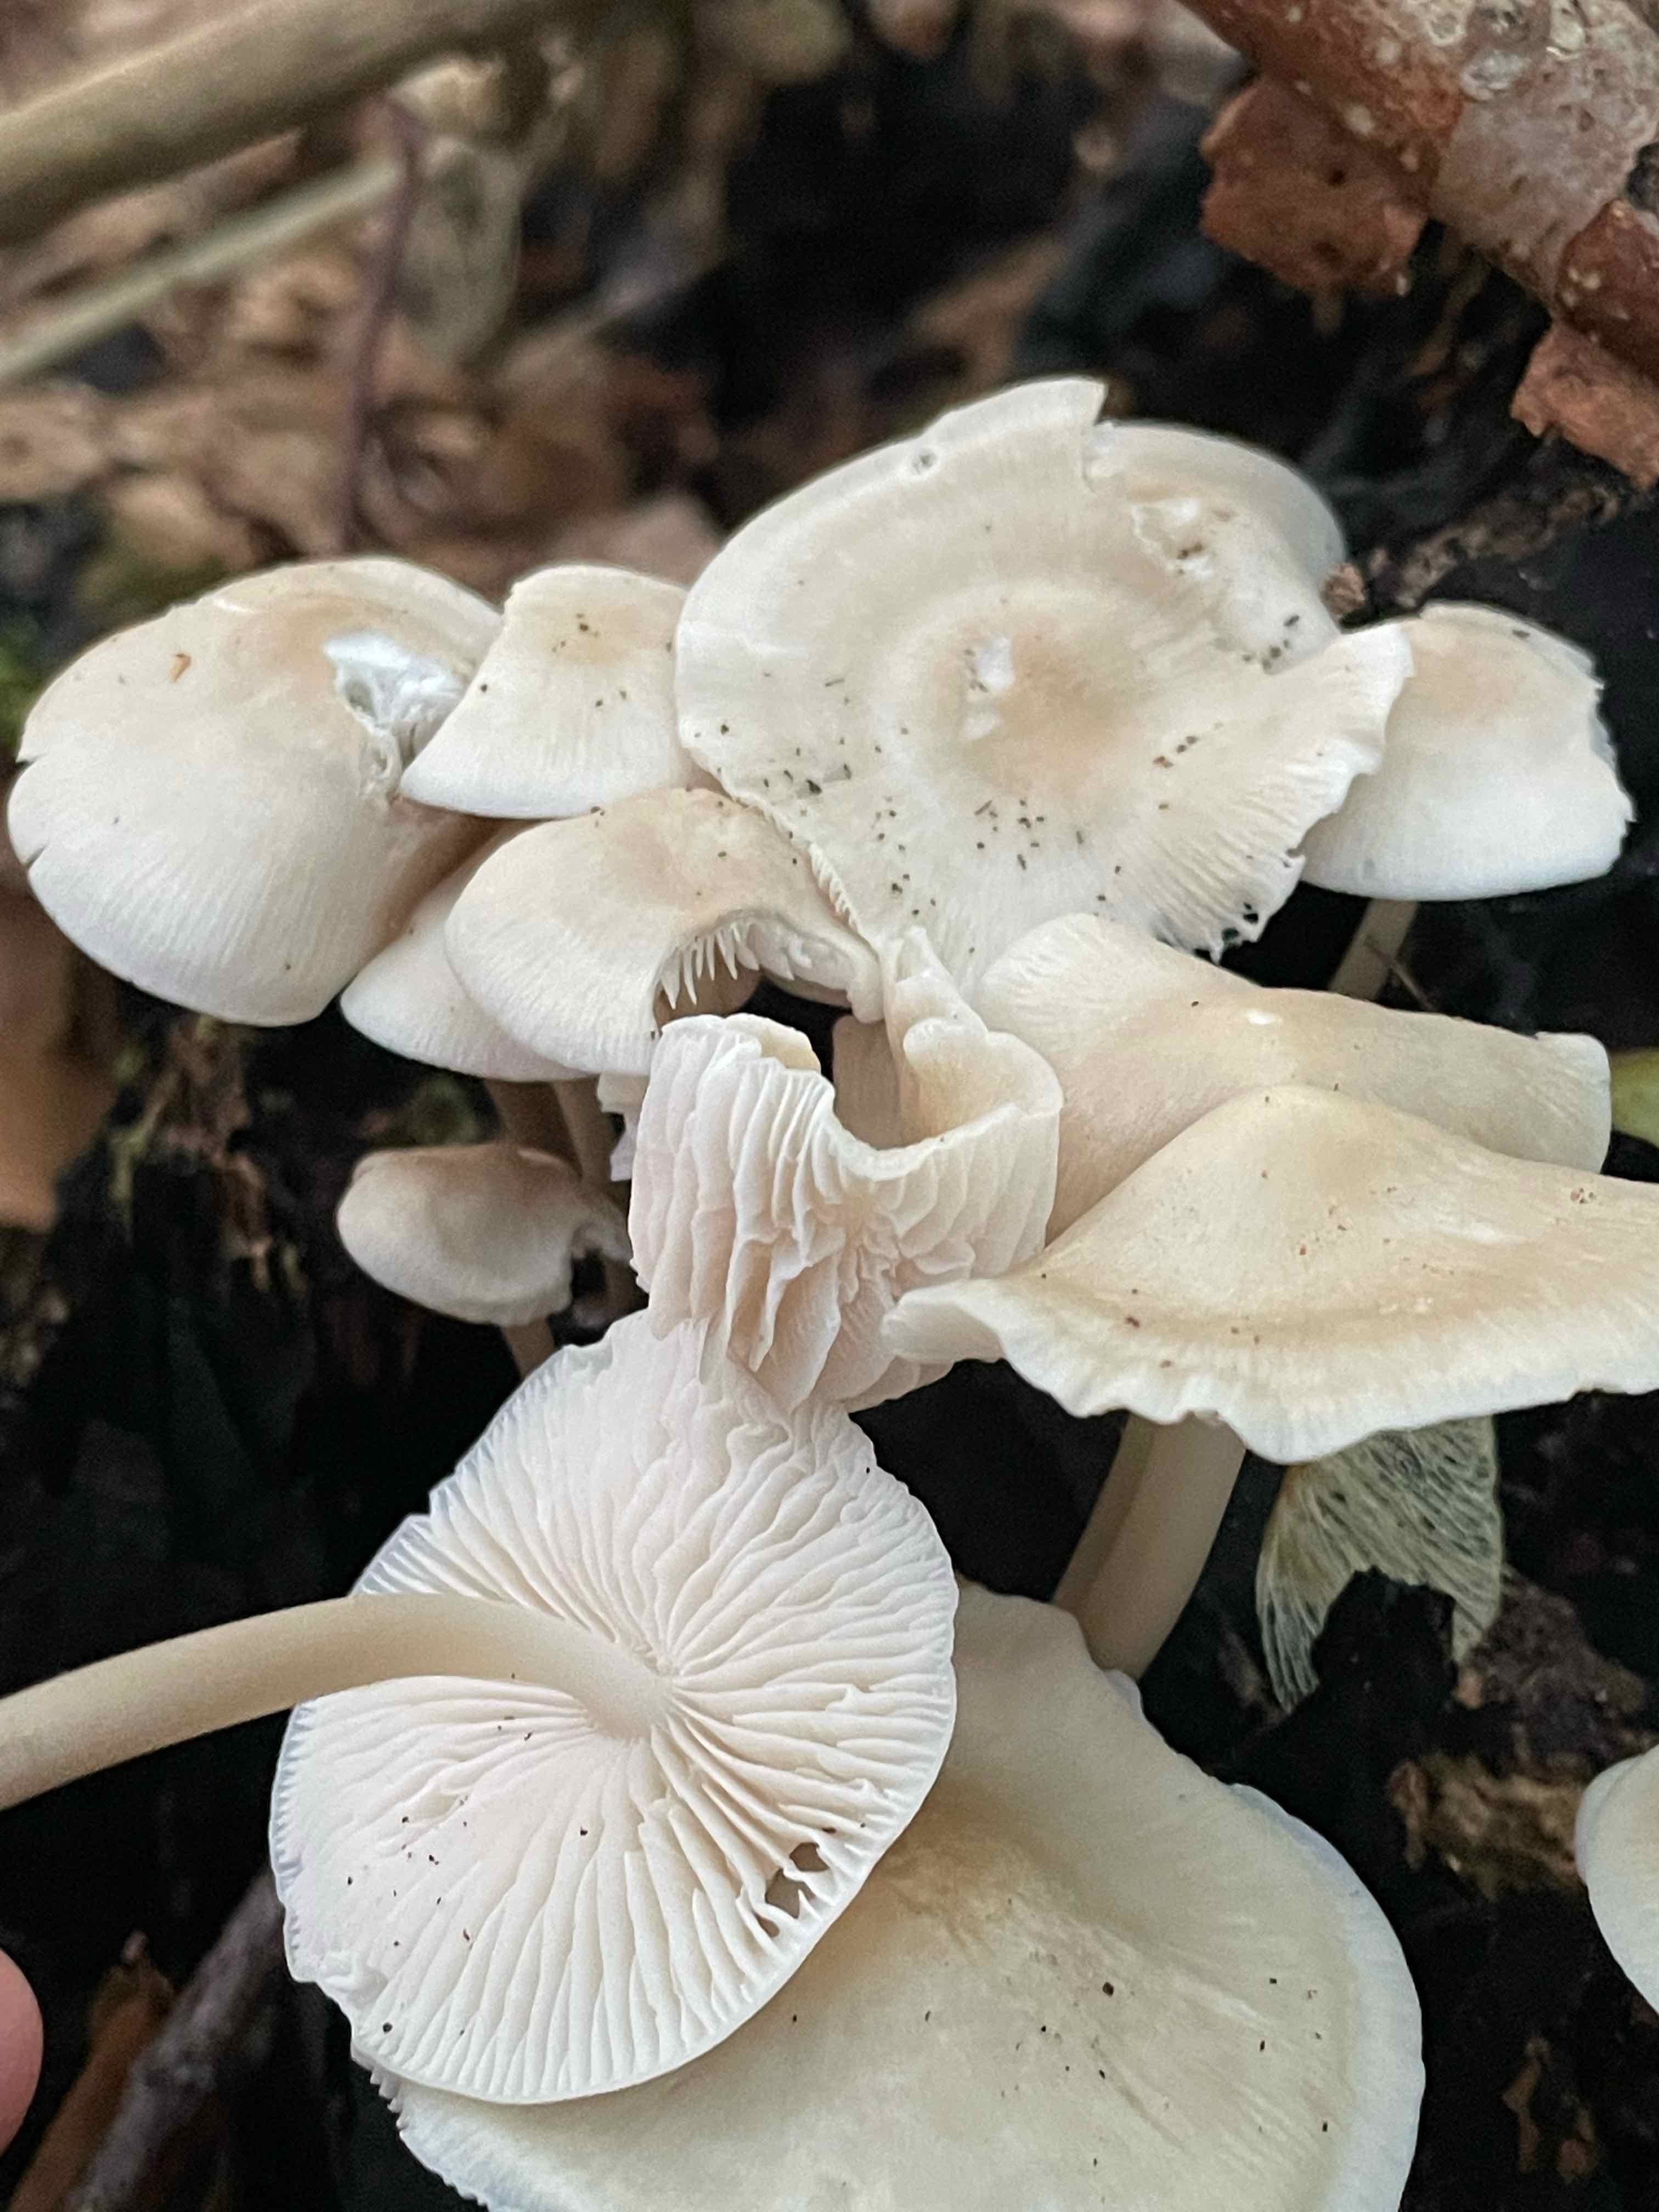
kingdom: Fungi
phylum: Basidiomycota
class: Agaricomycetes
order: Agaricales
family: Mycenaceae
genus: Mycena
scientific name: Mycena galericulata
